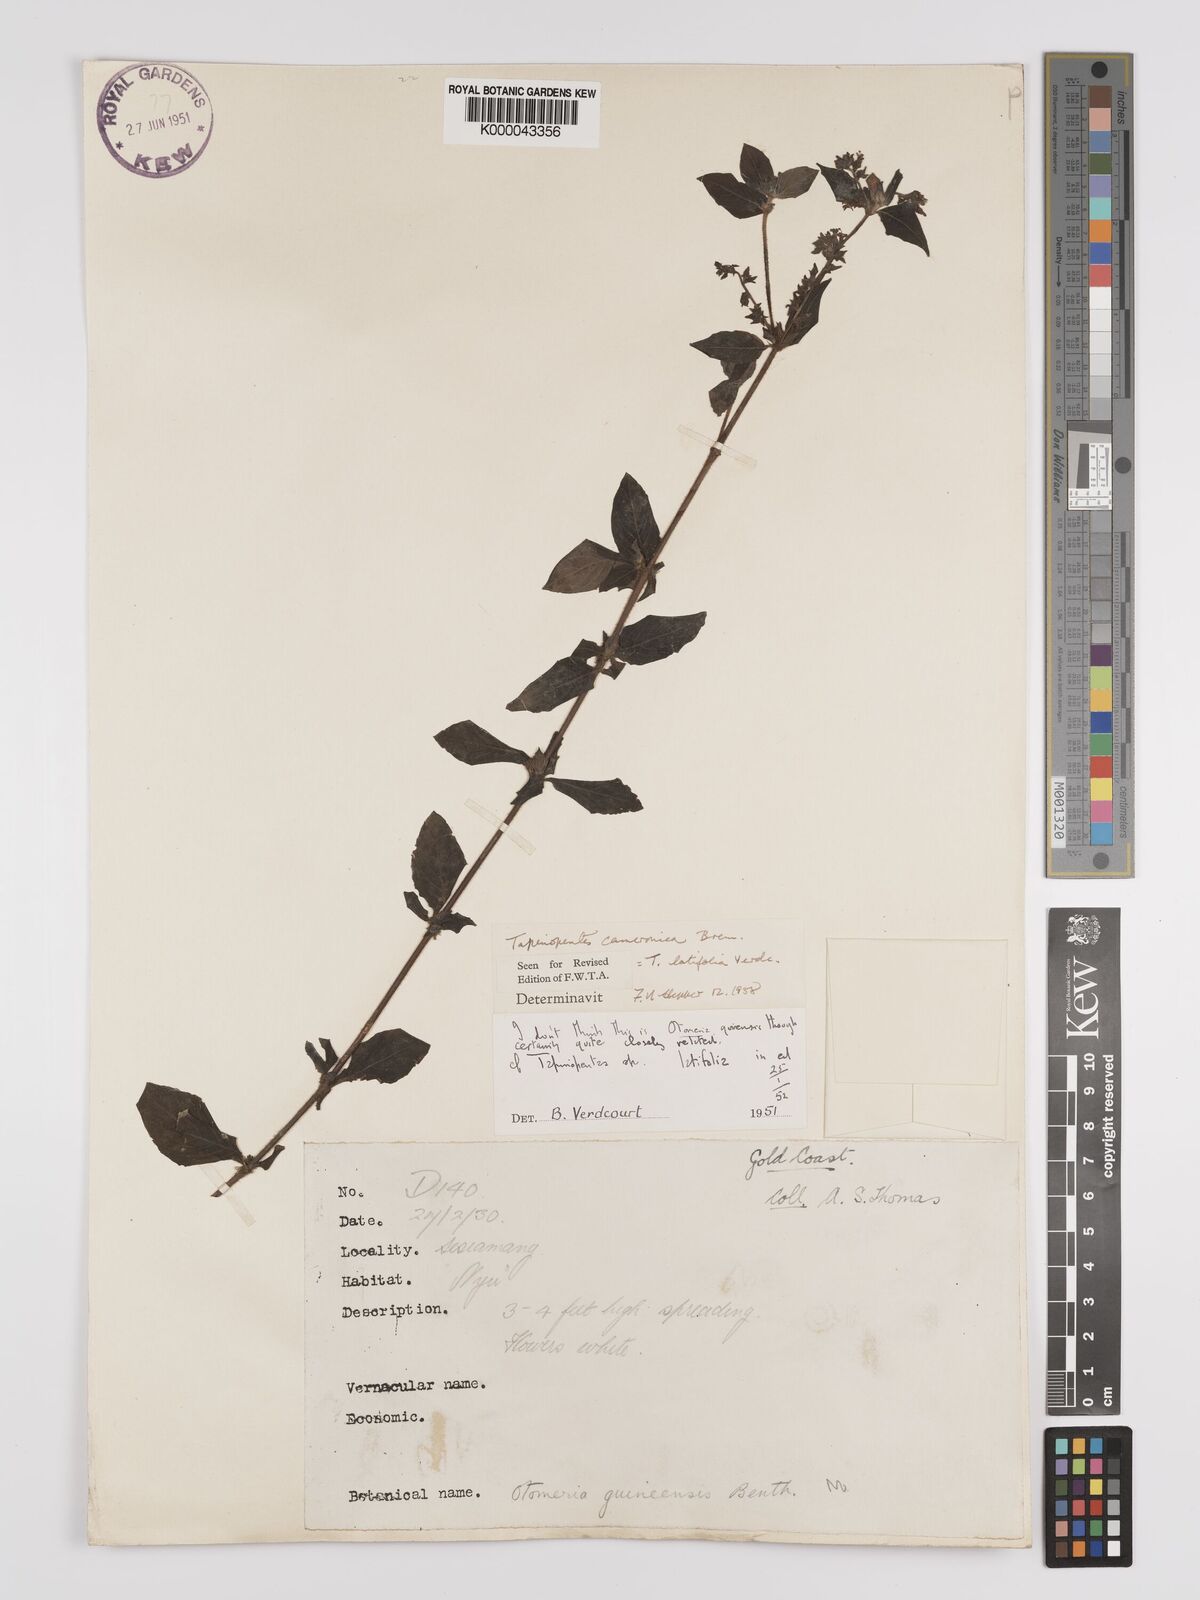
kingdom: Plantae
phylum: Tracheophyta
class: Magnoliopsida
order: Gentianales
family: Rubiaceae
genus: Otomeria
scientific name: Otomeria cameronica
